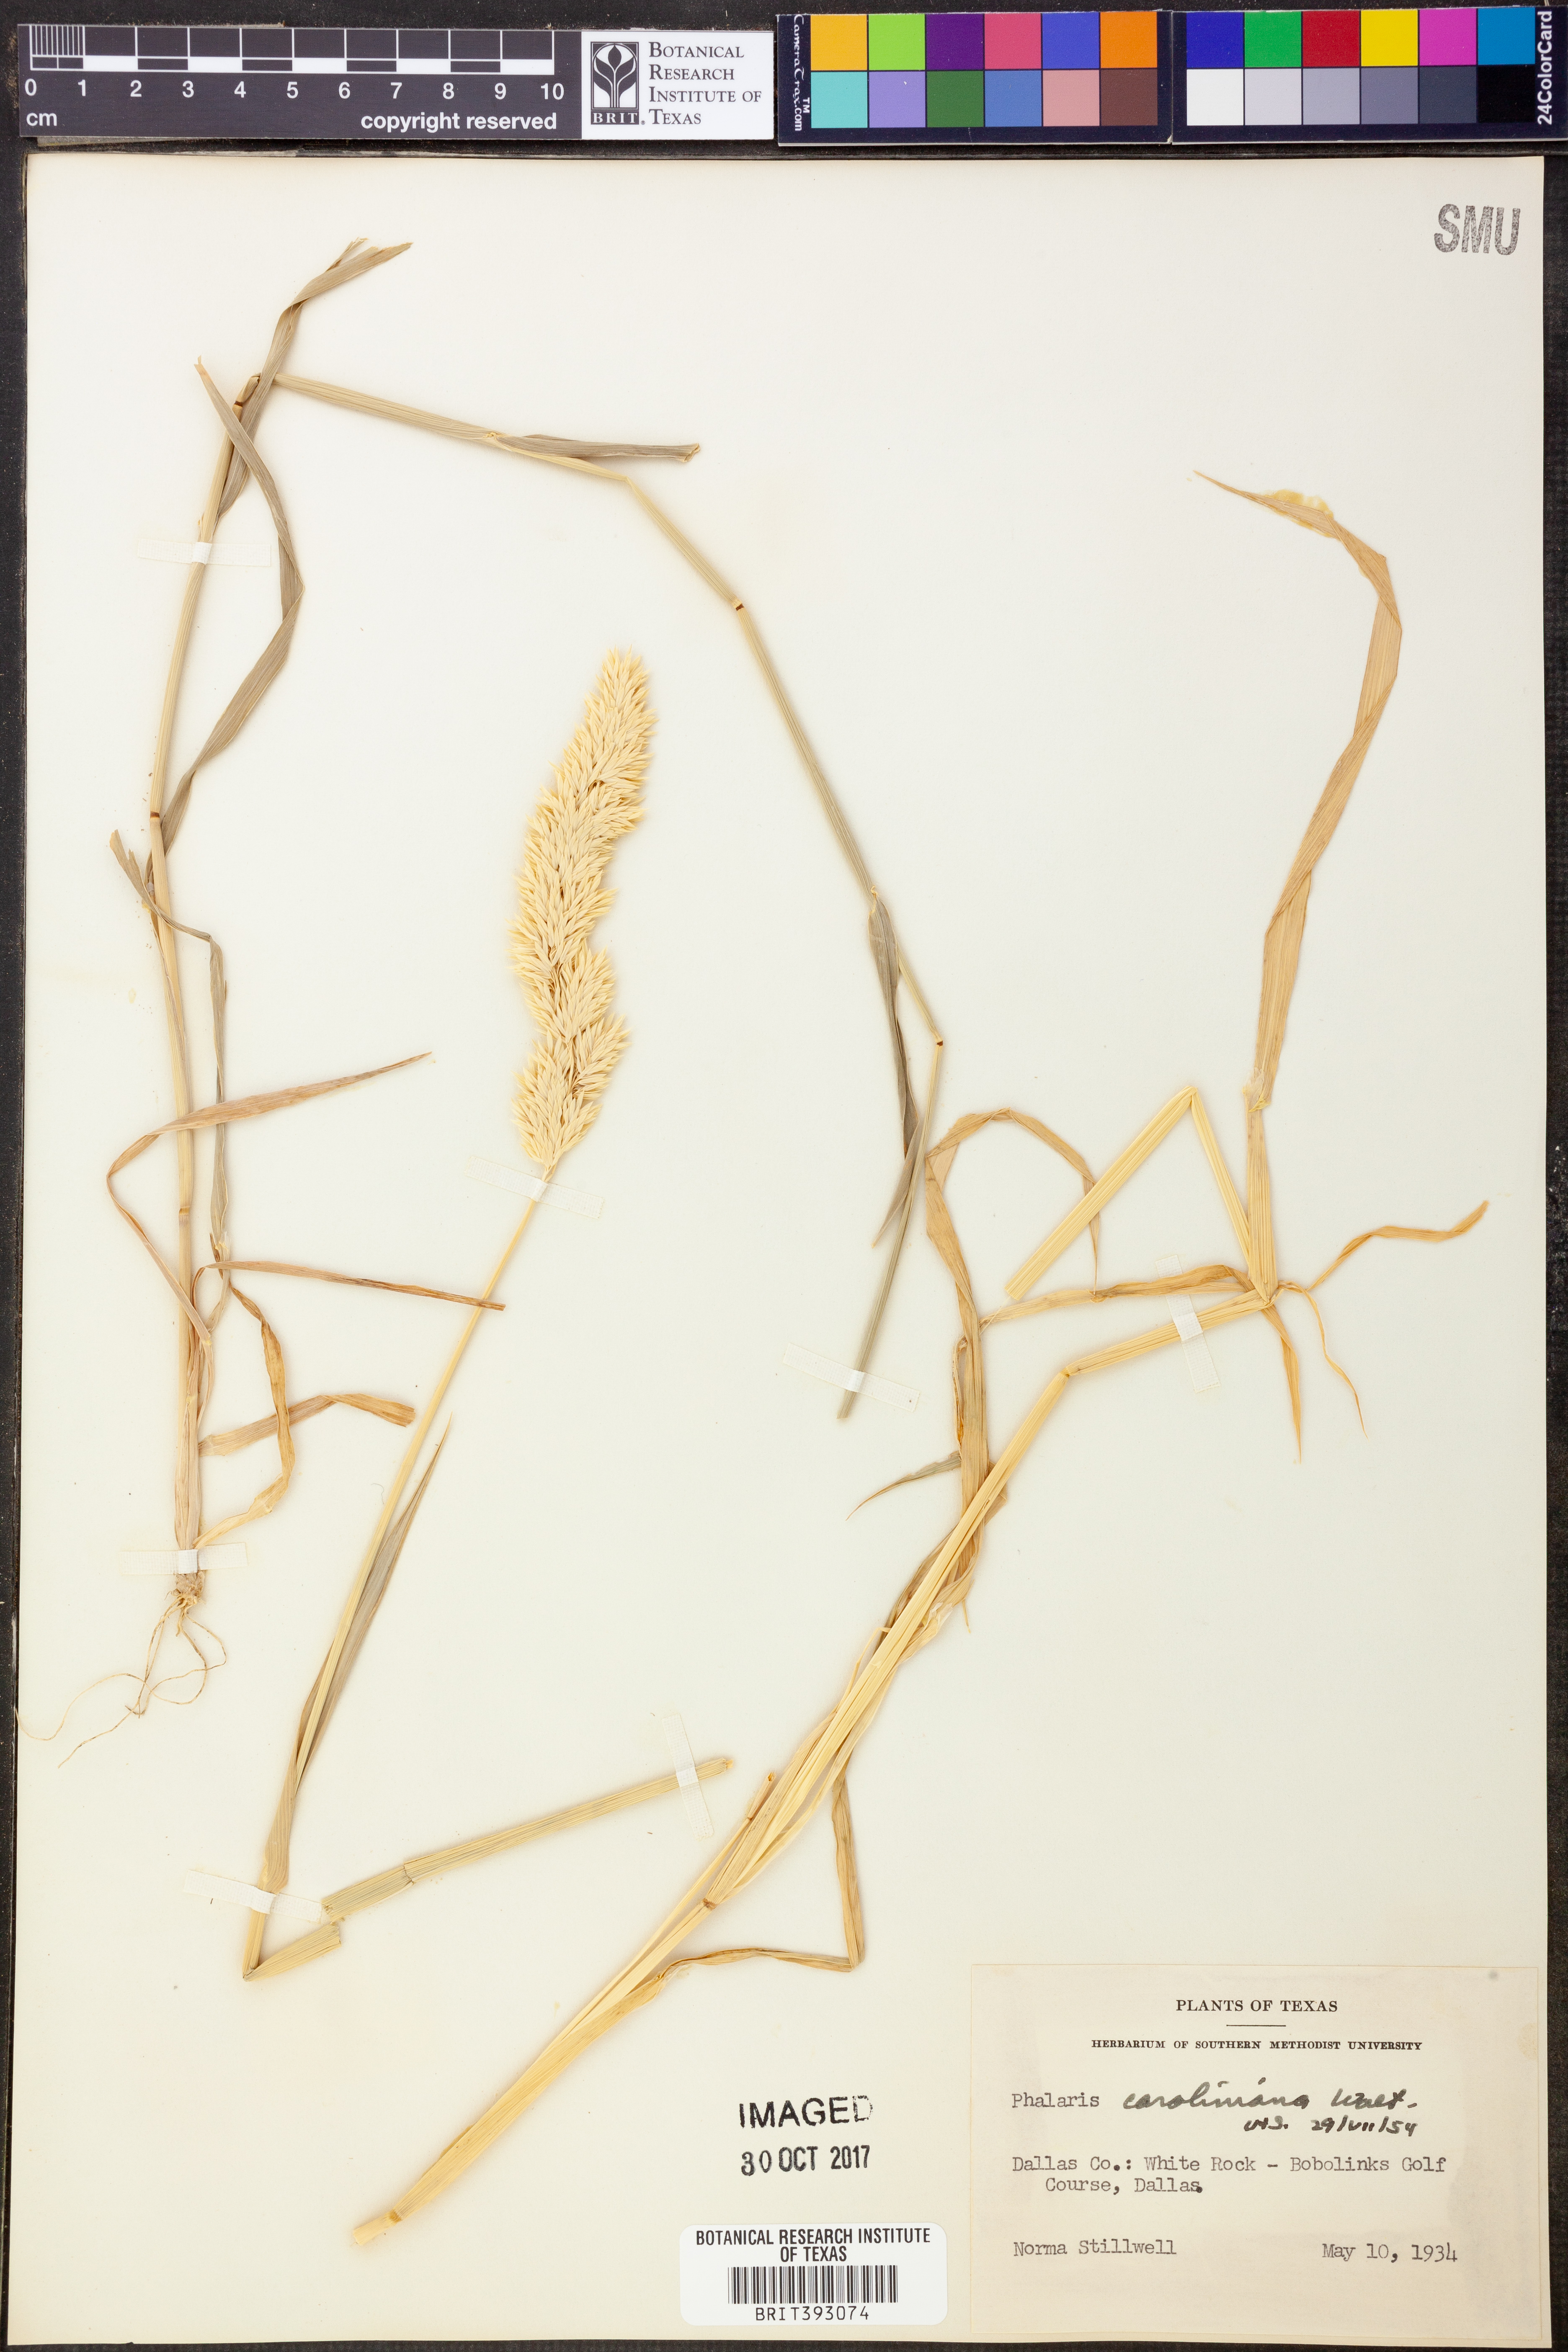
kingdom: Plantae
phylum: Tracheophyta
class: Liliopsida
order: Poales
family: Poaceae
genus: Phalaris
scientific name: Phalaris caroliniana
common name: May grass
